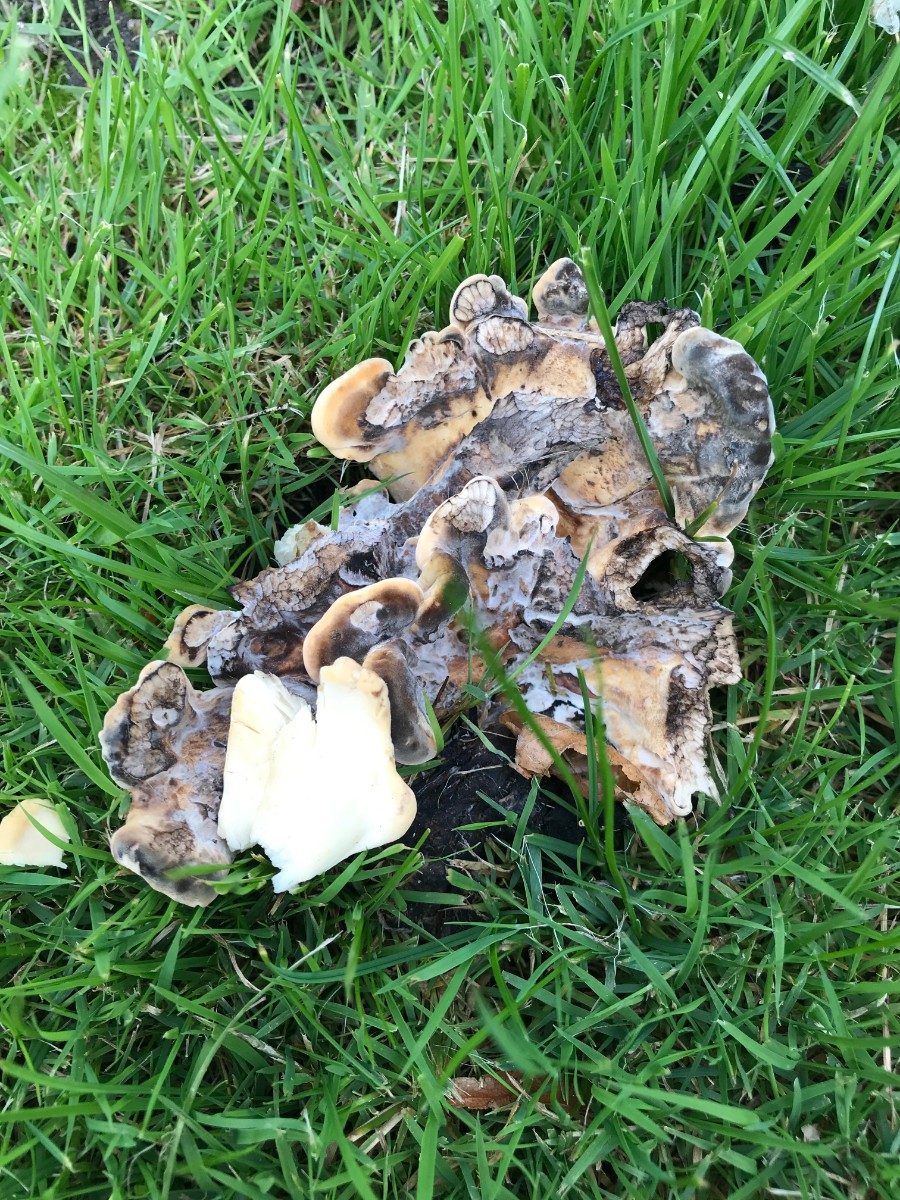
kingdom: Fungi
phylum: Basidiomycota
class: Agaricomycetes
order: Polyporales
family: Meripilaceae
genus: Meripilus
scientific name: Meripilus giganteus
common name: kæmpeporesvamp
